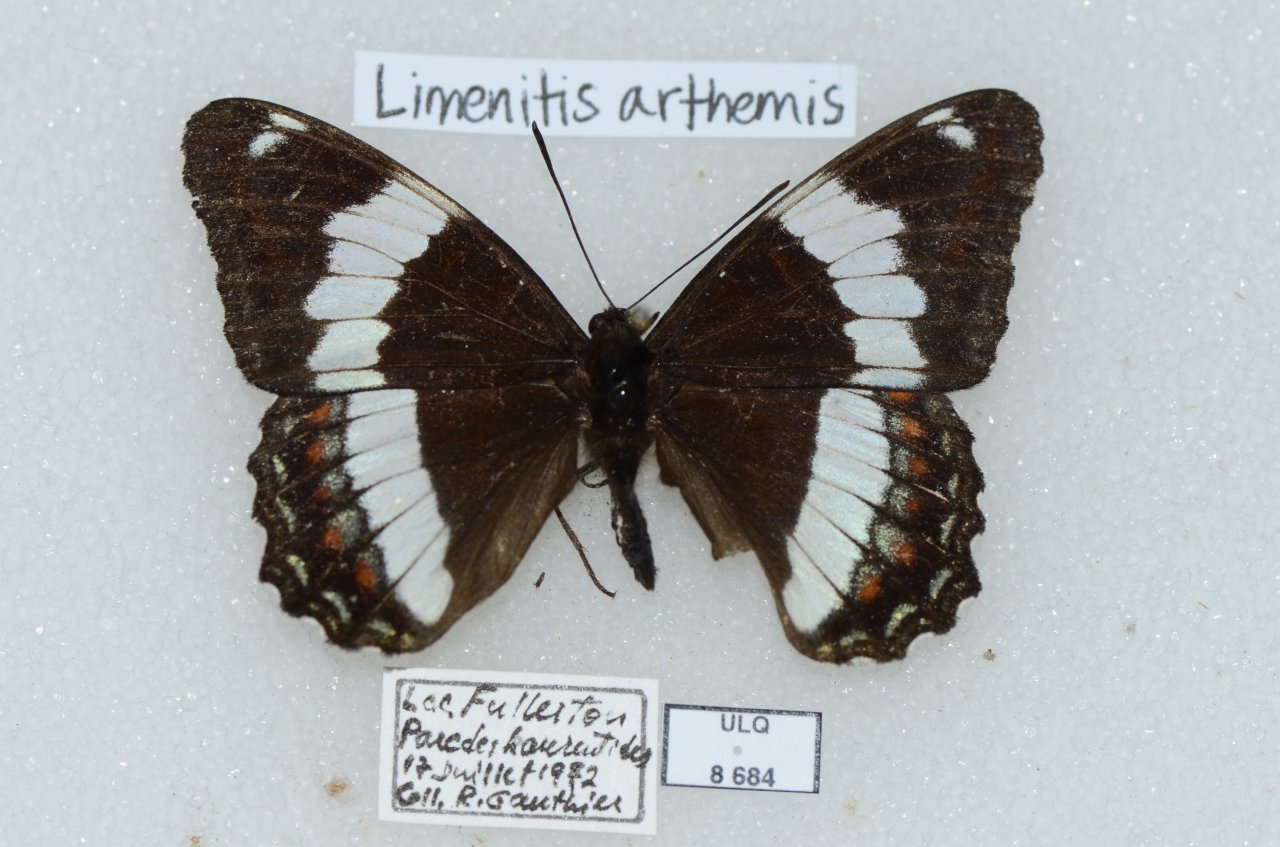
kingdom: Animalia
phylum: Arthropoda
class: Insecta
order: Lepidoptera
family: Nymphalidae
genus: Limenitis
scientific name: Limenitis arthemis
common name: Red-spotted Admiral
